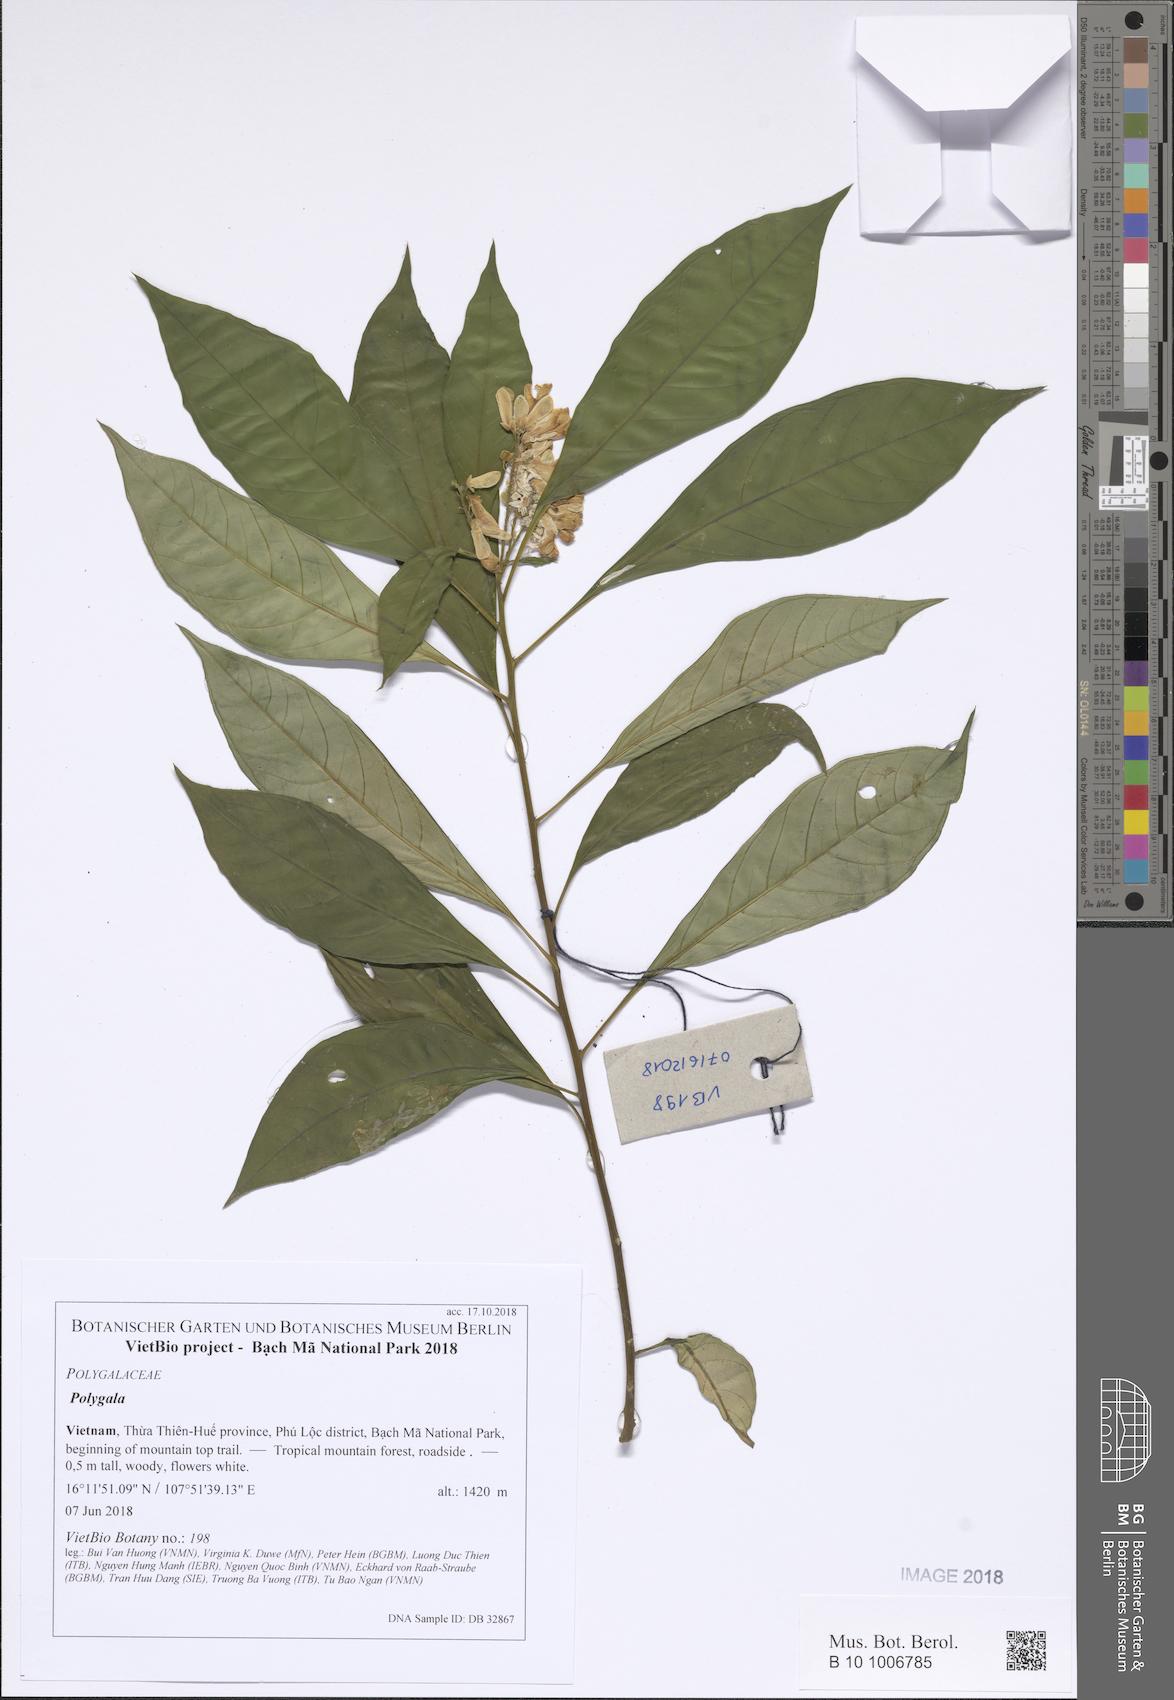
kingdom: Plantae
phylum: Tracheophyta
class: Magnoliopsida
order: Fabales
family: Polygalaceae
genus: Polygala
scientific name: Polygala karensium
